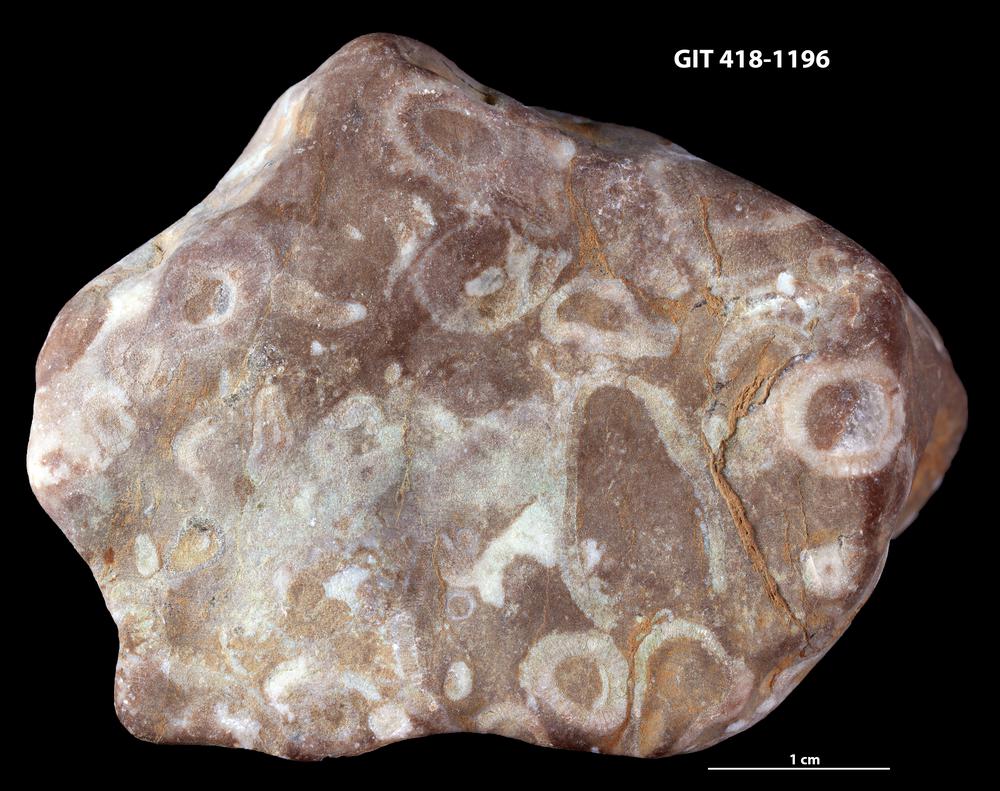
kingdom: Animalia
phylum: Porifera
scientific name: Porifera
